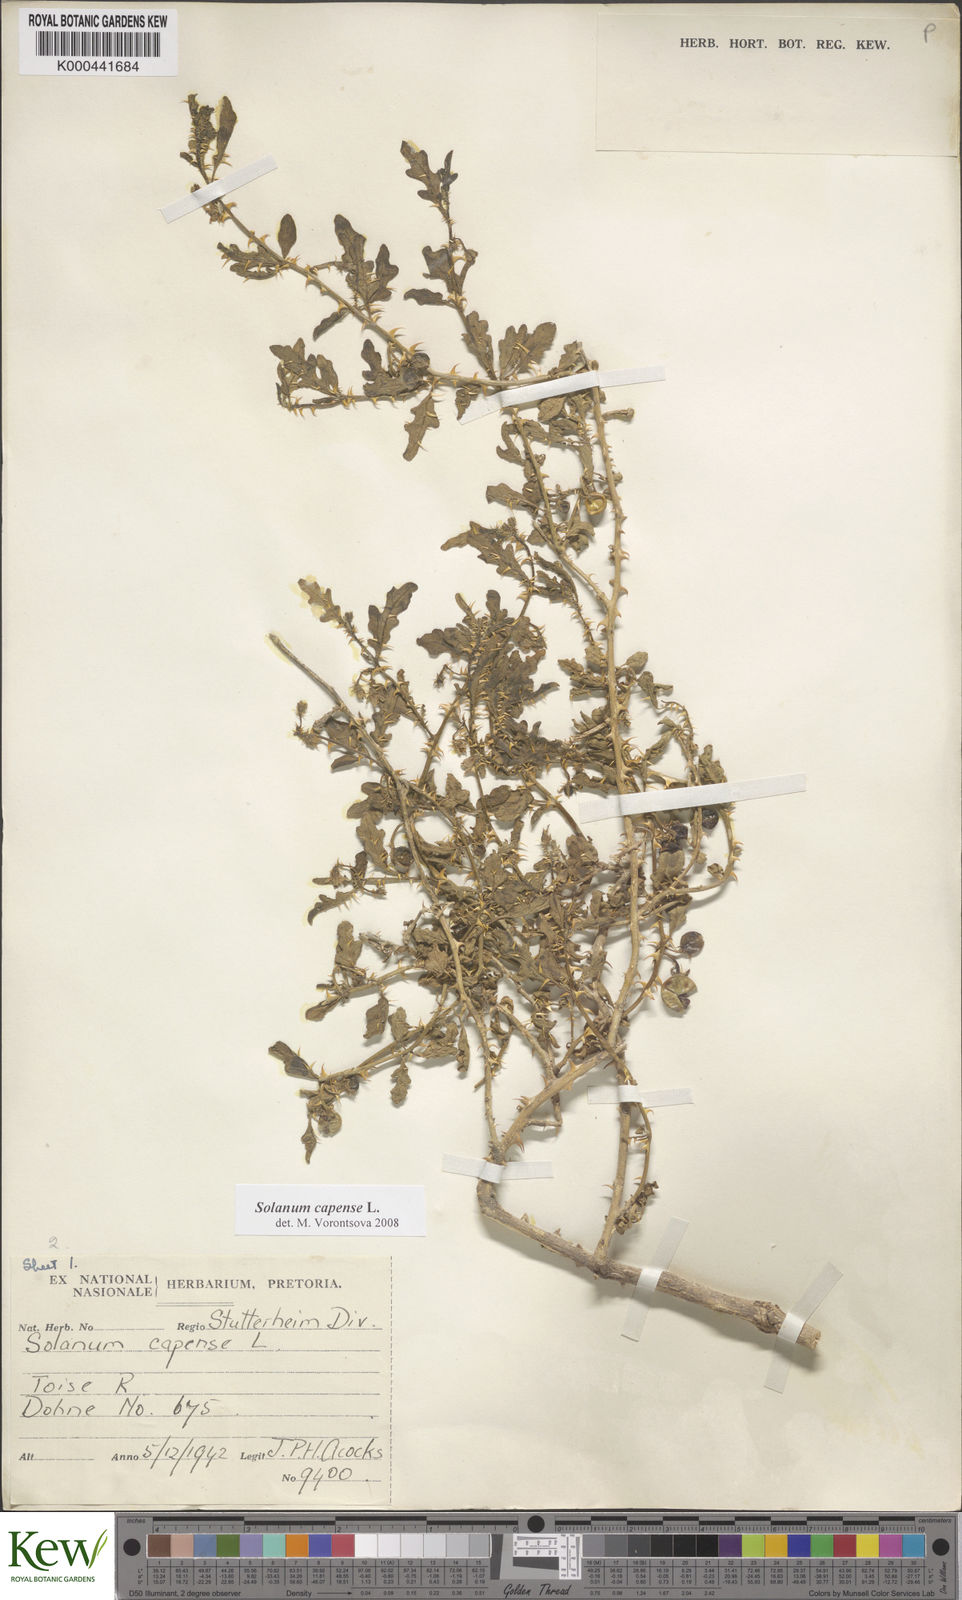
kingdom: Plantae
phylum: Tracheophyta
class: Magnoliopsida
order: Solanales
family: Solanaceae
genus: Solanum
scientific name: Solanum capense
